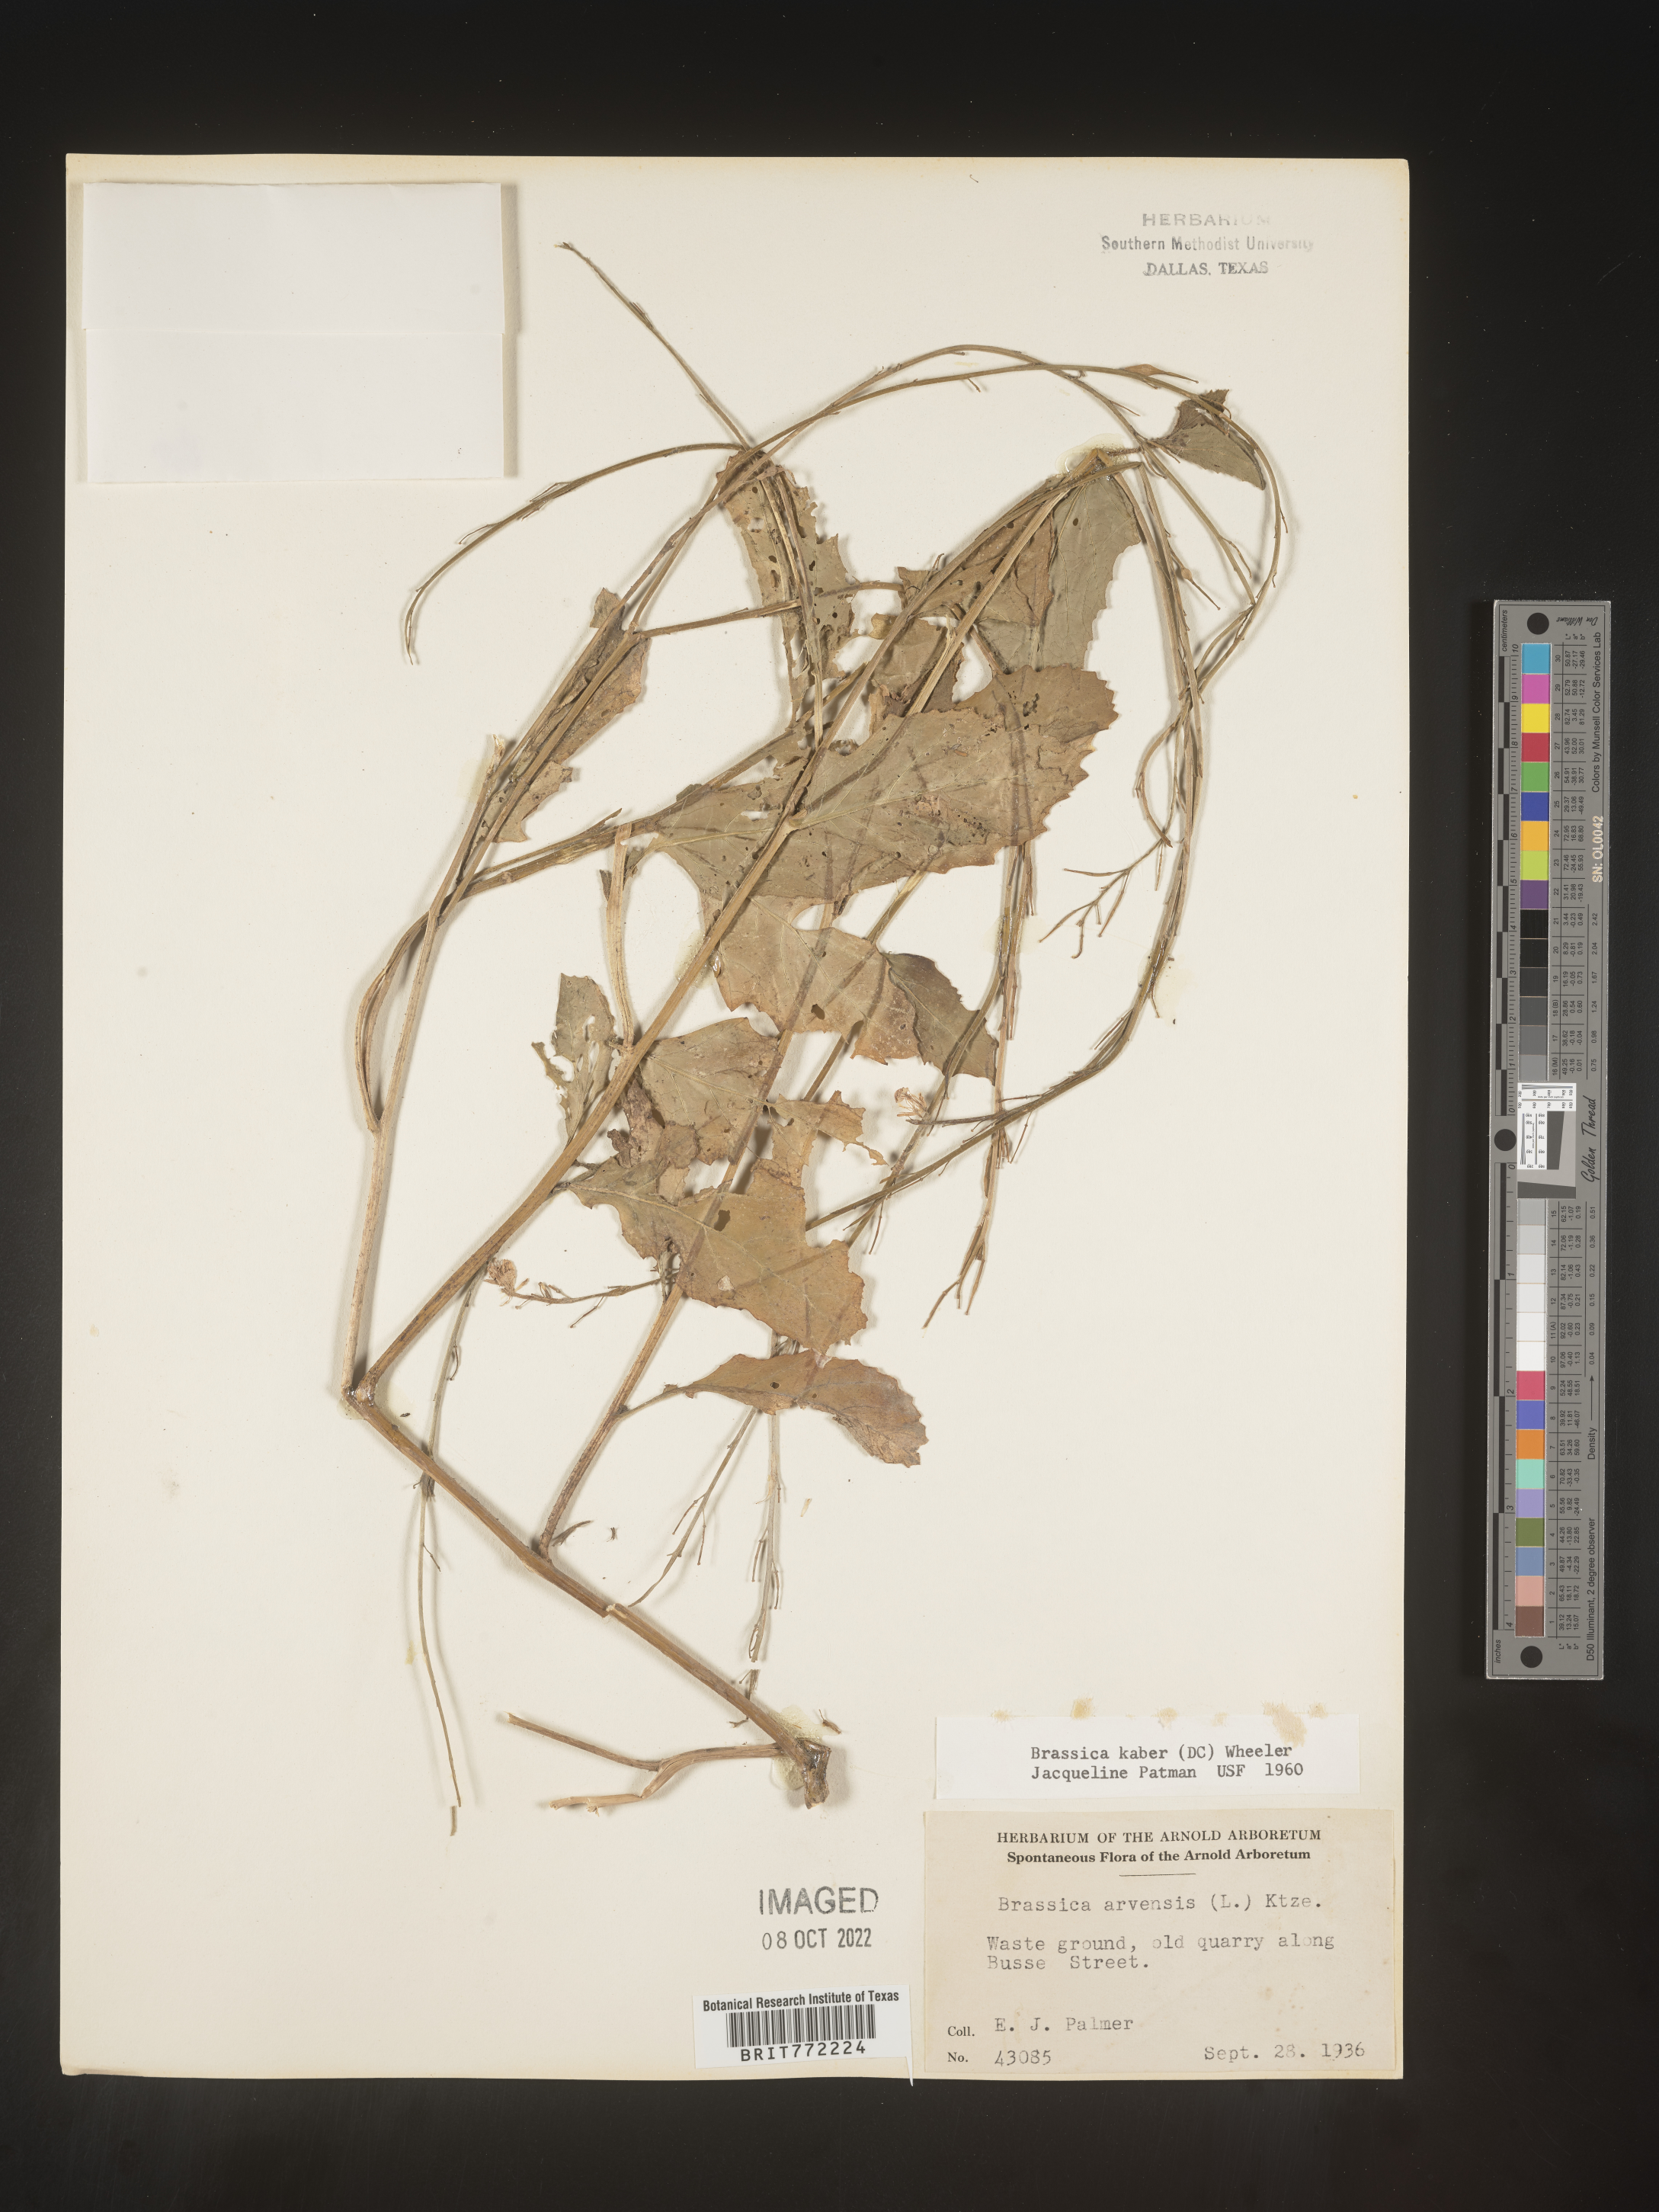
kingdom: Plantae
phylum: Tracheophyta
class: Magnoliopsida
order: Brassicales
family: Brassicaceae
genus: Sinapis
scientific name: Sinapis arvensis
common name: Charlock
